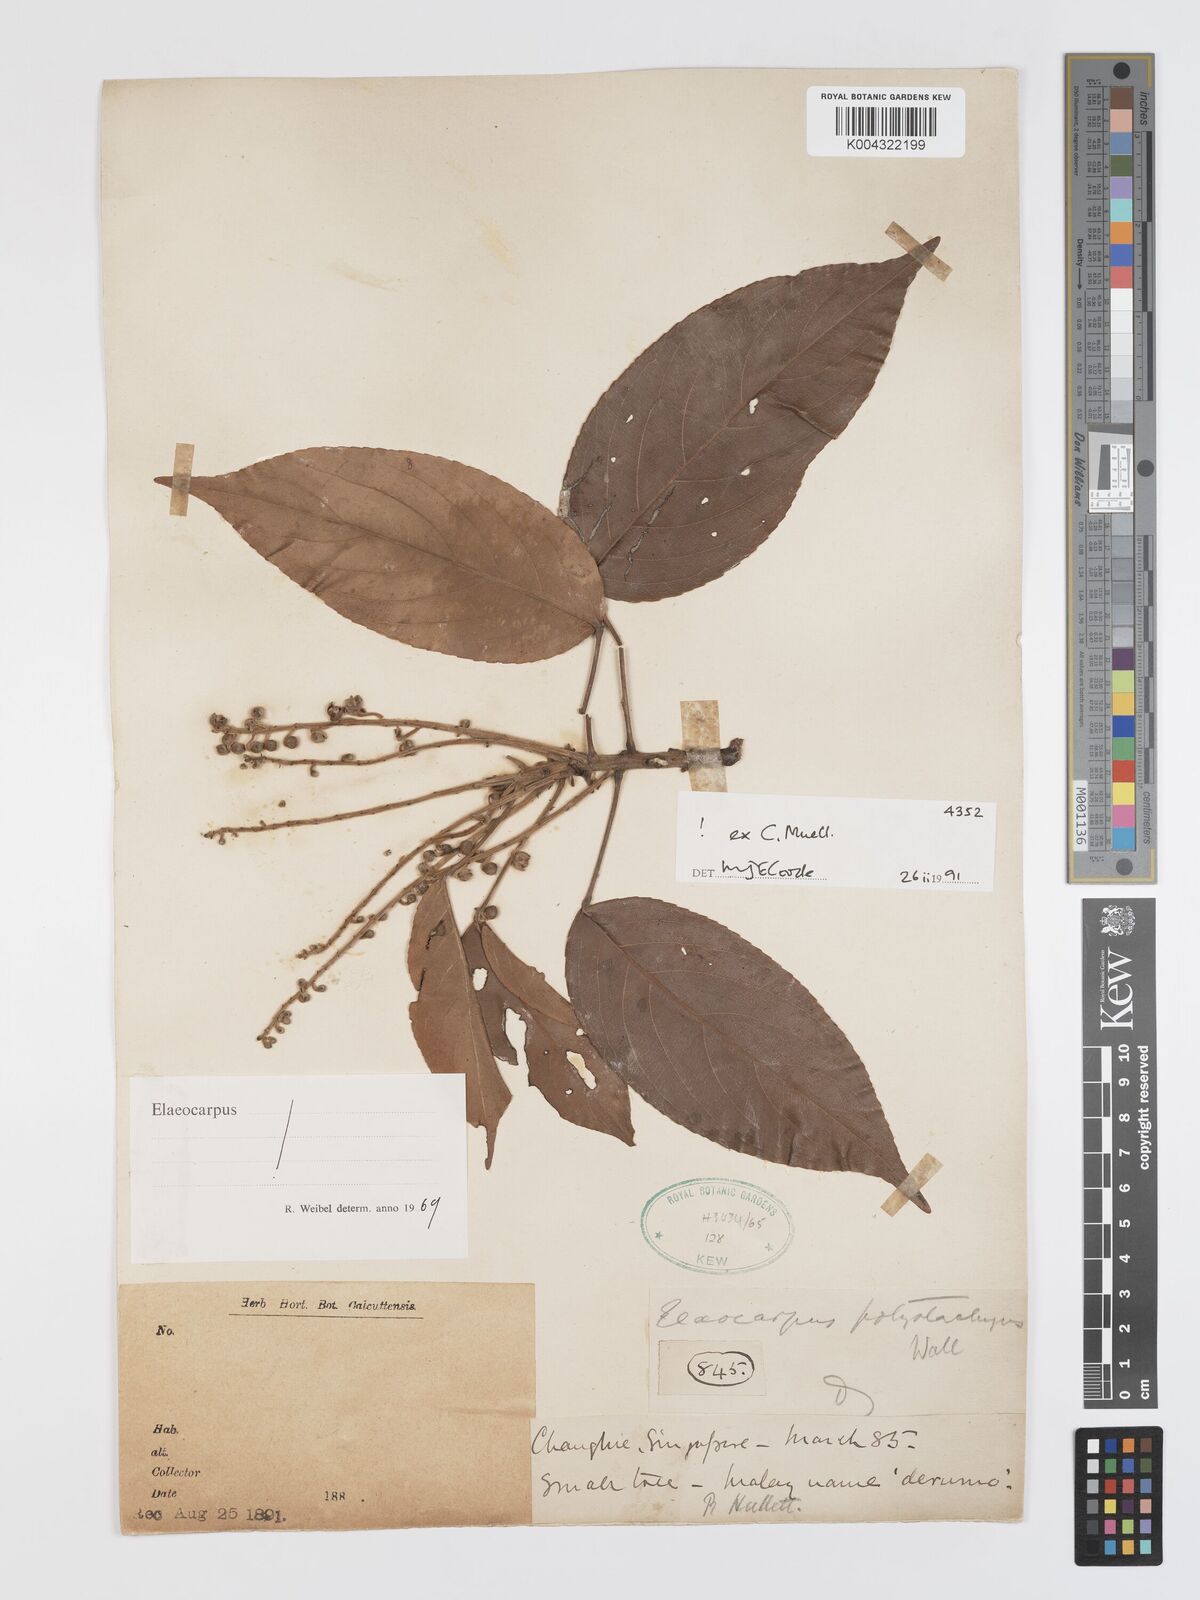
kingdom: Plantae
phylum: Tracheophyta
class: Magnoliopsida
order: Oxalidales
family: Elaeocarpaceae
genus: Elaeocarpus
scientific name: Elaeocarpus polystachyus
